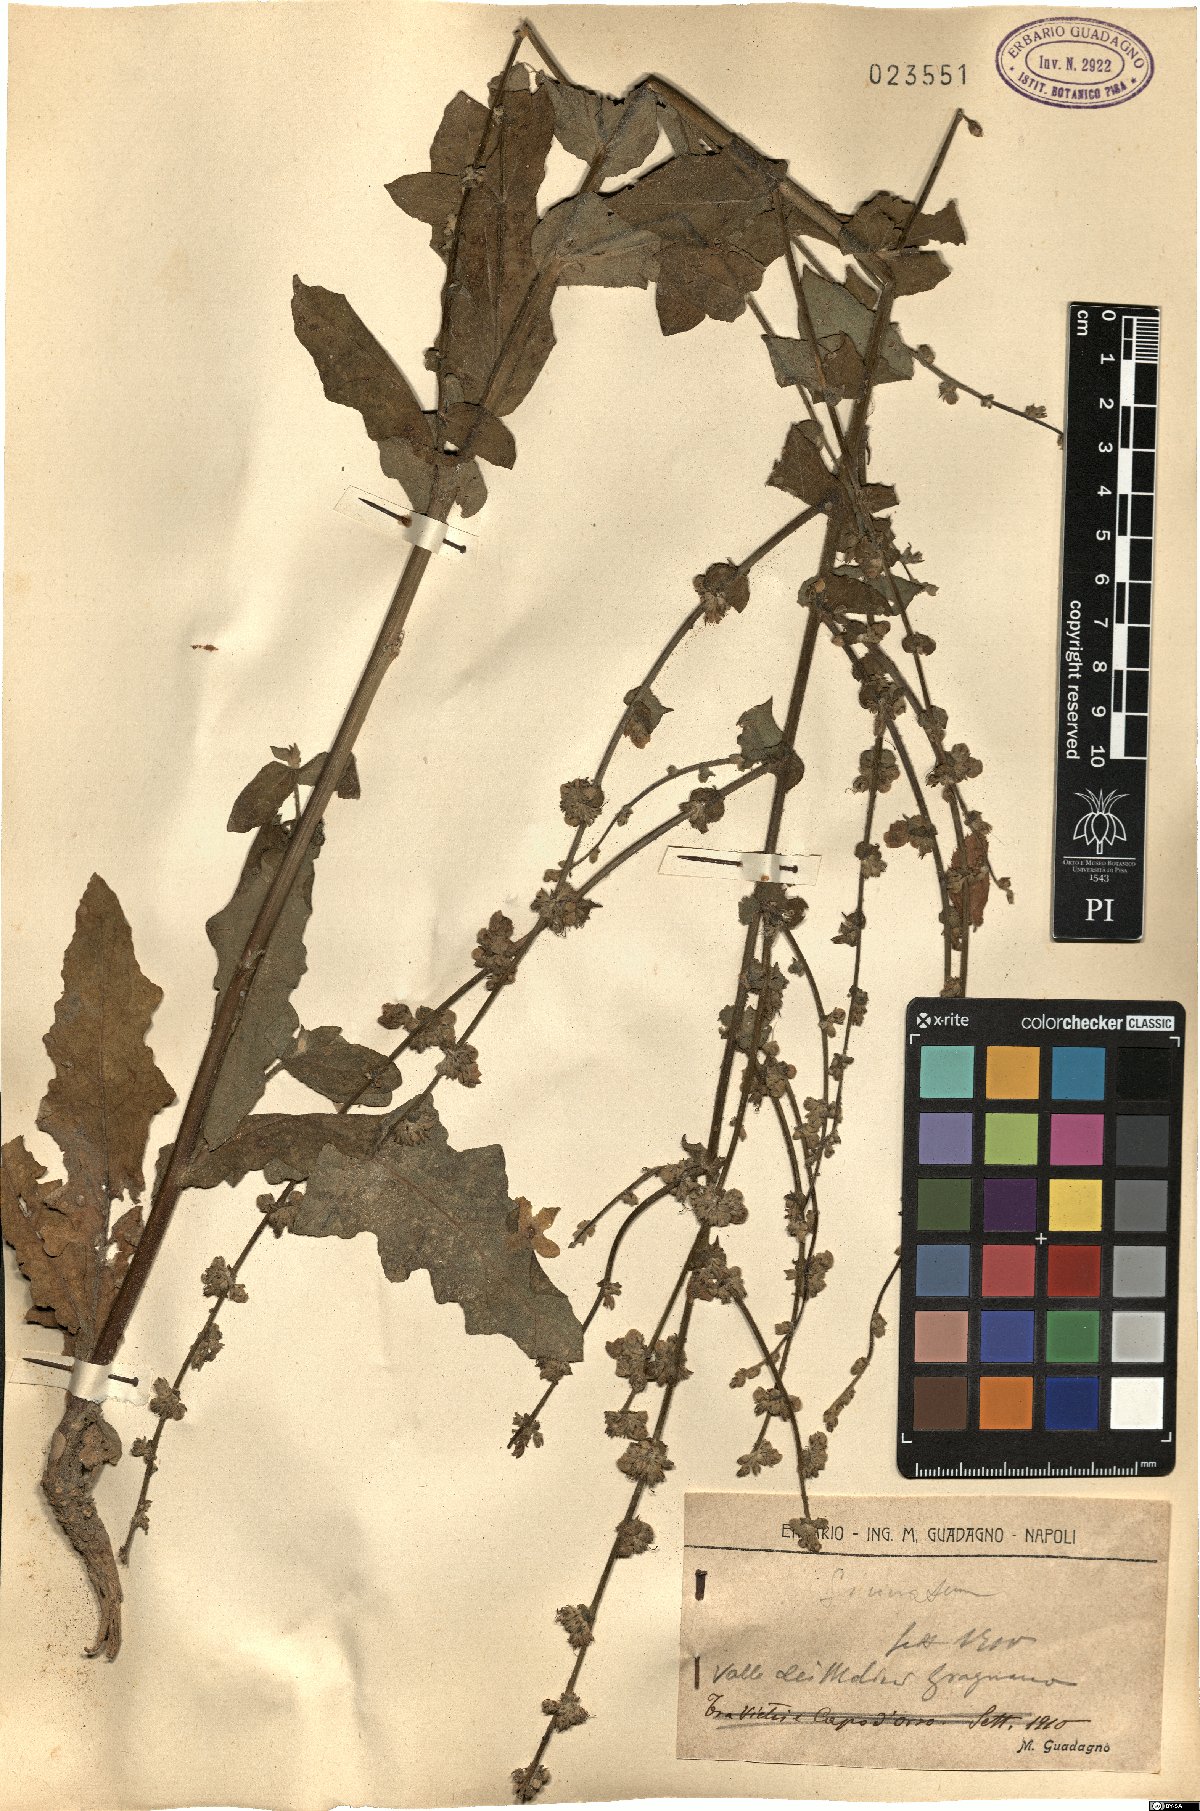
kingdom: Plantae
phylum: Tracheophyta
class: Magnoliopsida
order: Lamiales
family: Scrophulariaceae
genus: Verbascum
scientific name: Verbascum sinuatum
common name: Wavyleaf mullein
